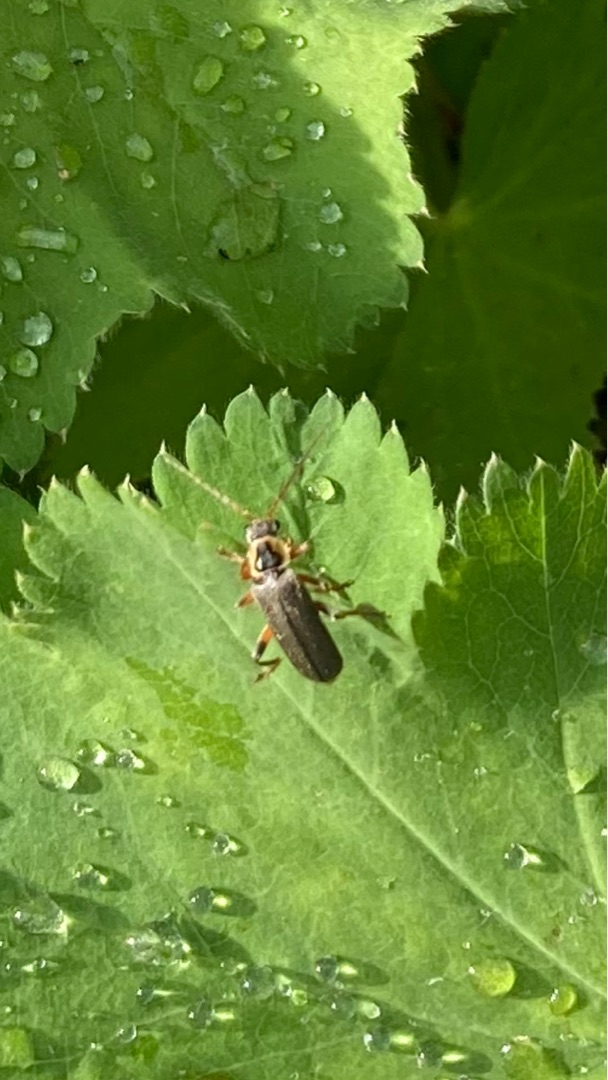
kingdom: Animalia
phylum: Arthropoda
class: Insecta
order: Coleoptera
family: Cantharidae
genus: Cantharis
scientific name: Cantharis nigricans
